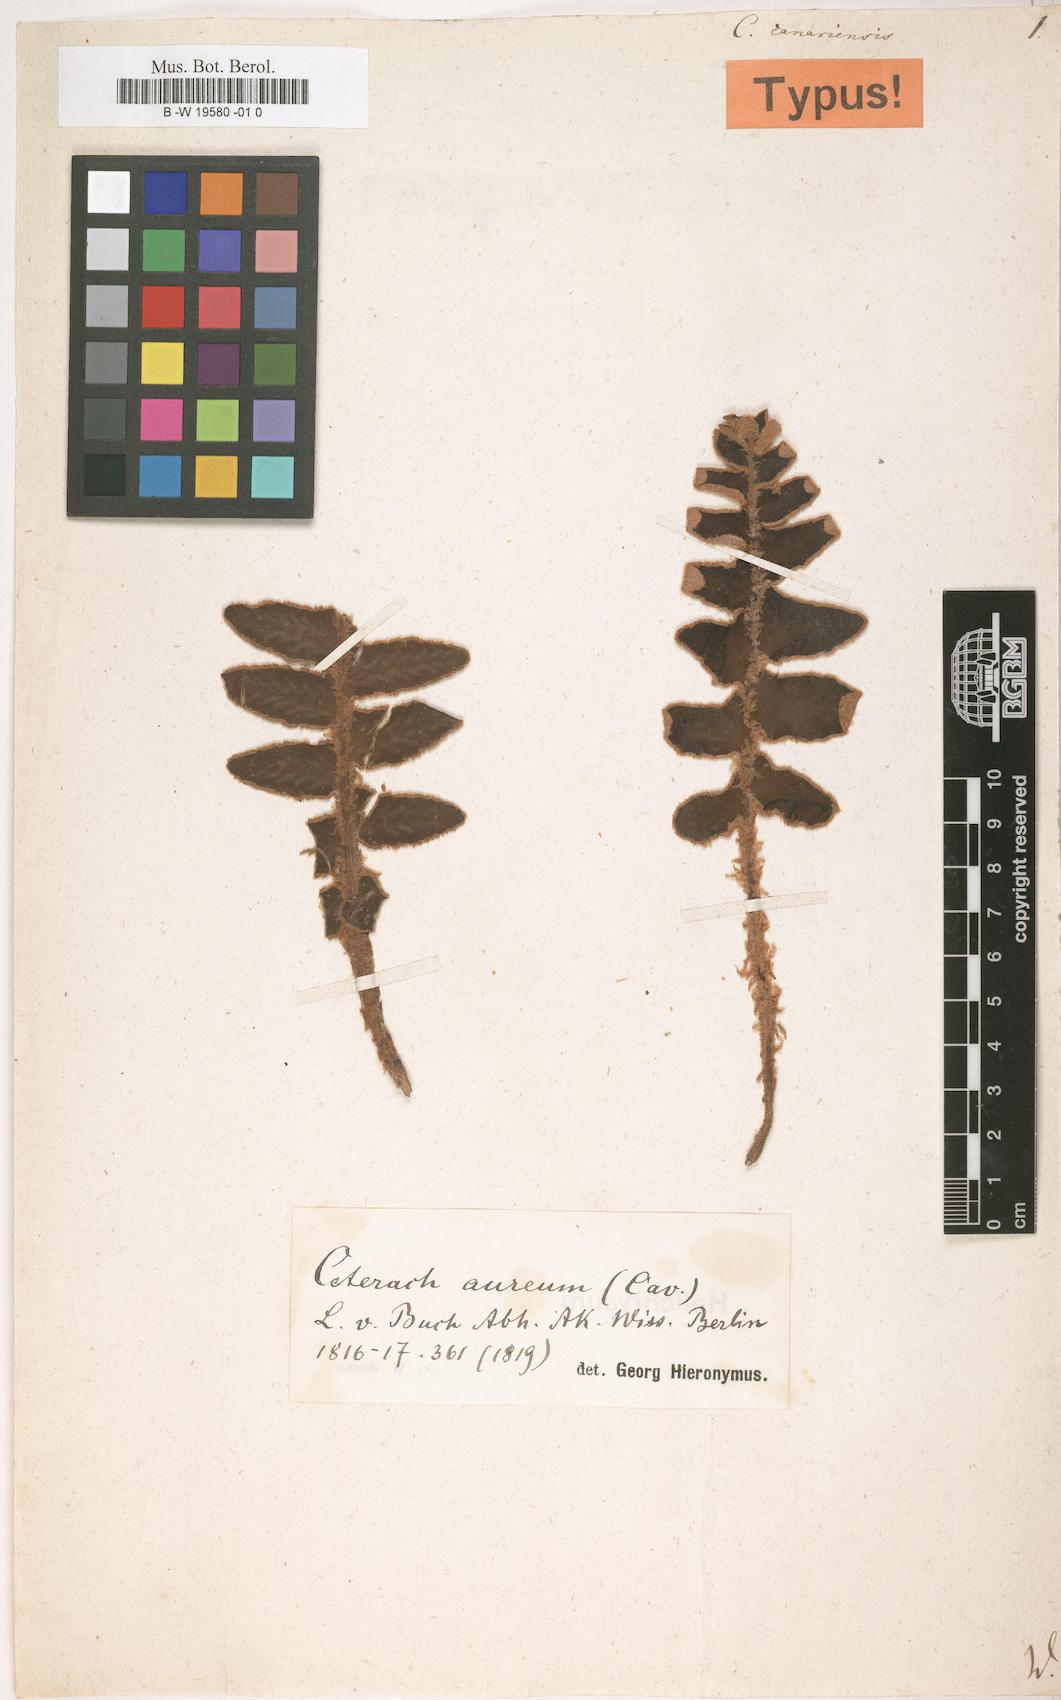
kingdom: Plantae
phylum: Tracheophyta
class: Polypodiopsida
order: Polypodiales
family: Aspleniaceae
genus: Asplenium
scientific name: Asplenium canariense
